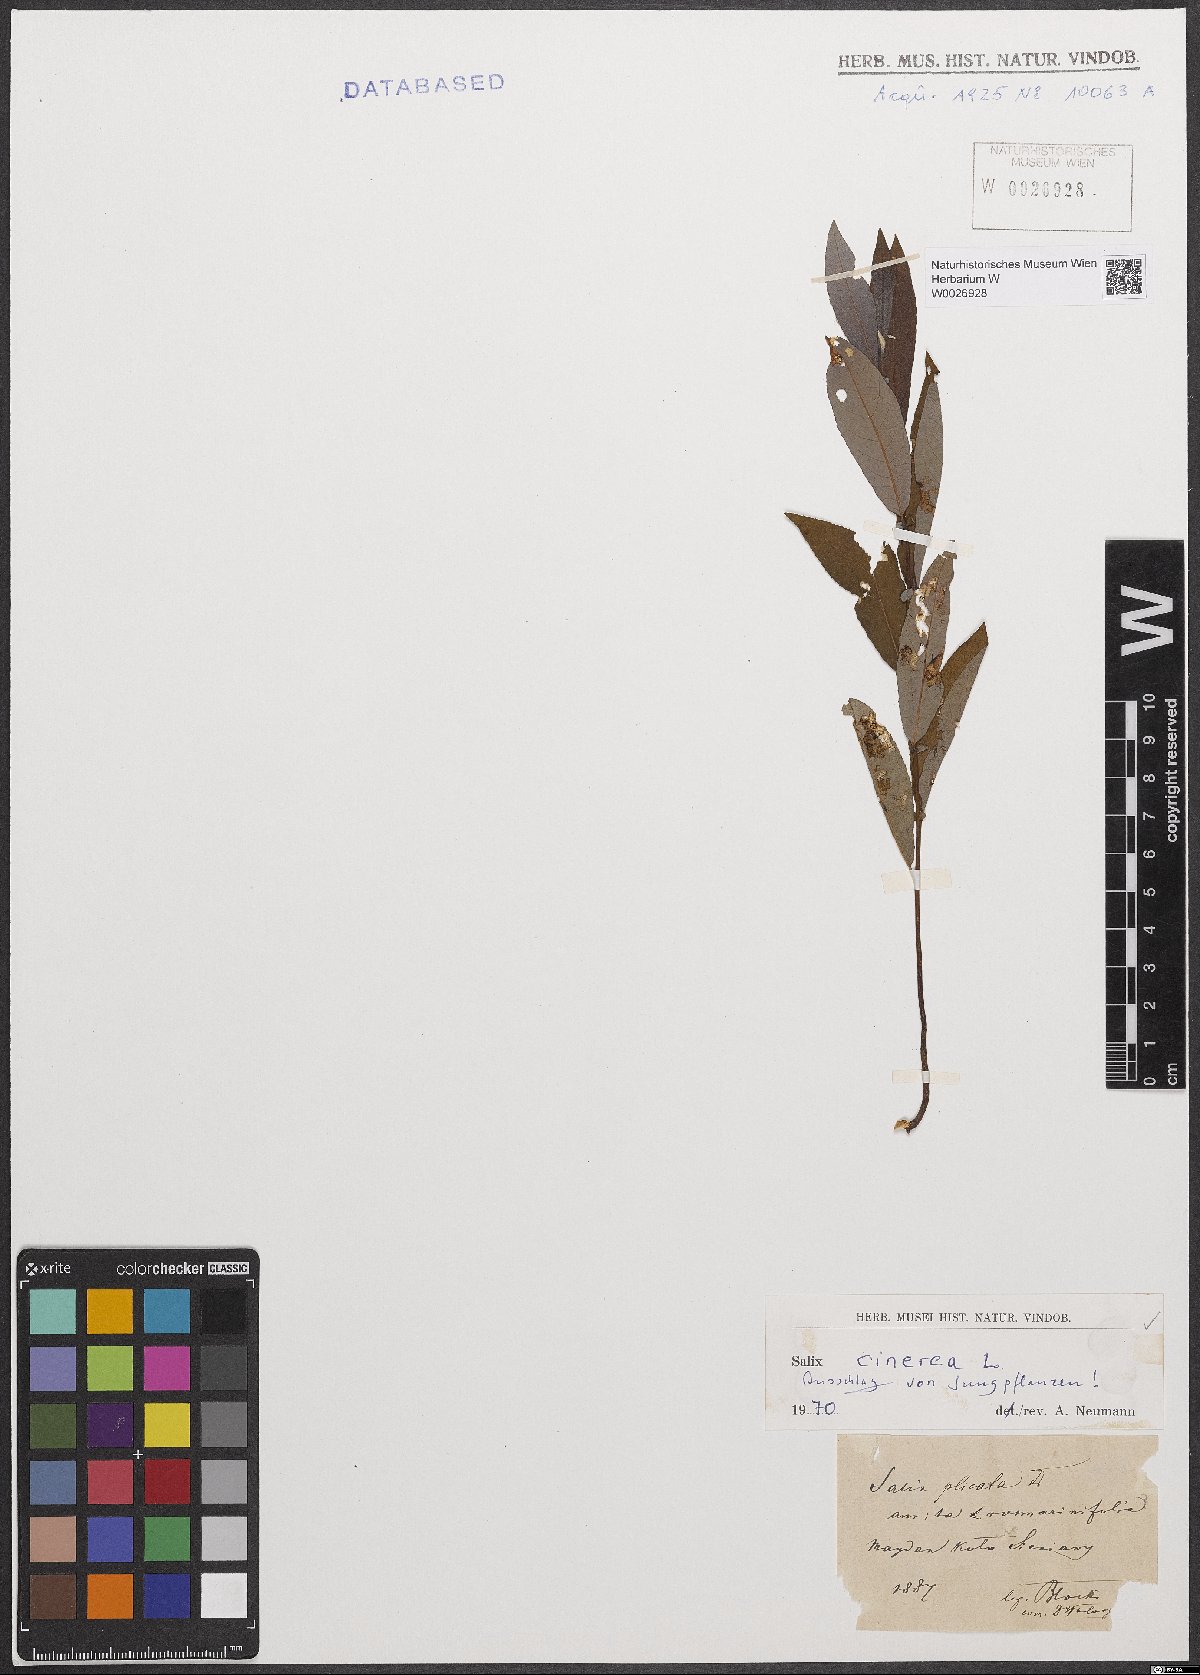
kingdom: Plantae
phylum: Tracheophyta
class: Magnoliopsida
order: Malpighiales
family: Salicaceae
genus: Salix
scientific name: Salix cinerea
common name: Common sallow
